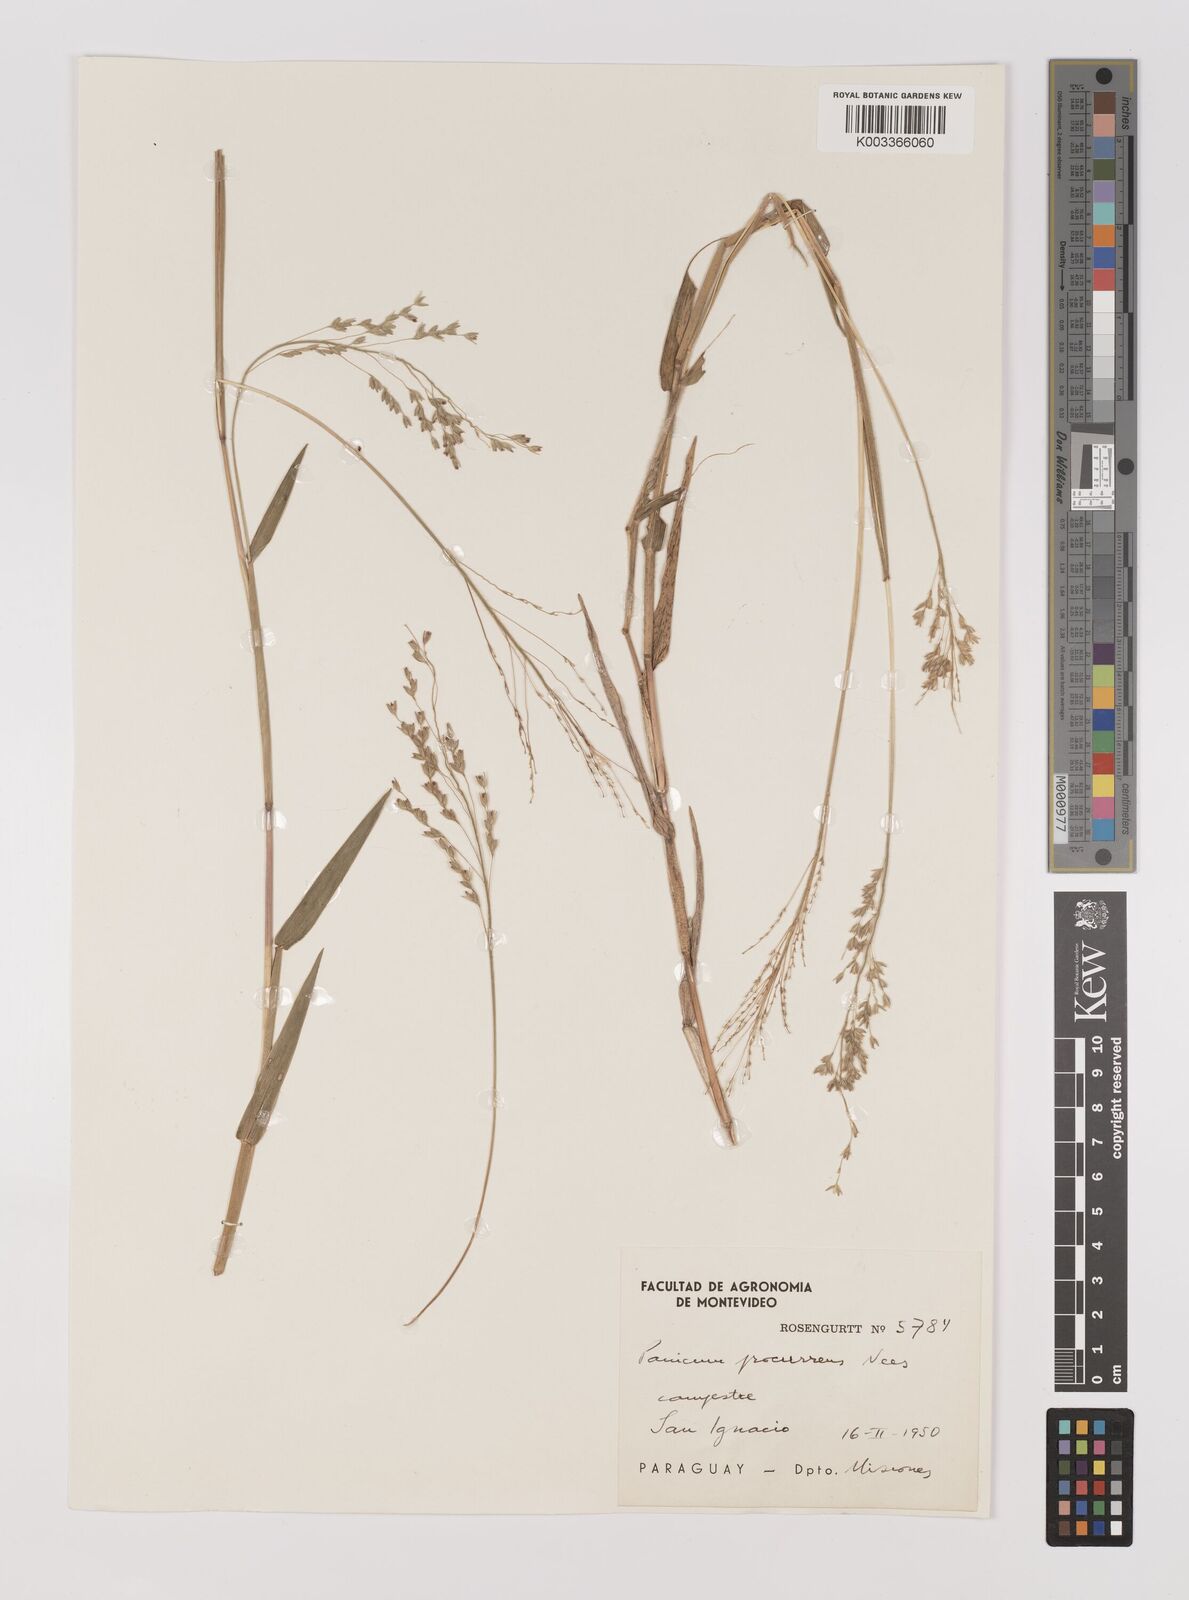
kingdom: Plantae
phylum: Tracheophyta
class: Liliopsida
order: Poales
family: Poaceae
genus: Oedochloa
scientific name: Oedochloa procurrens
